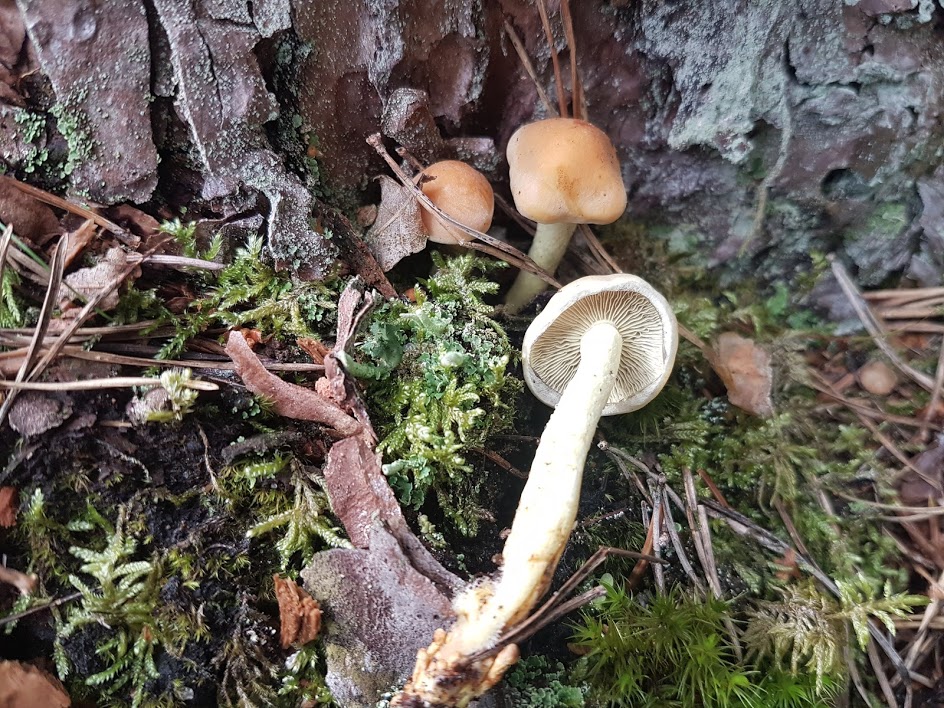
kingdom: Fungi
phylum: Basidiomycota
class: Agaricomycetes
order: Agaricales
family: Strophariaceae
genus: Hypholoma
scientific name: Hypholoma fasciculare
